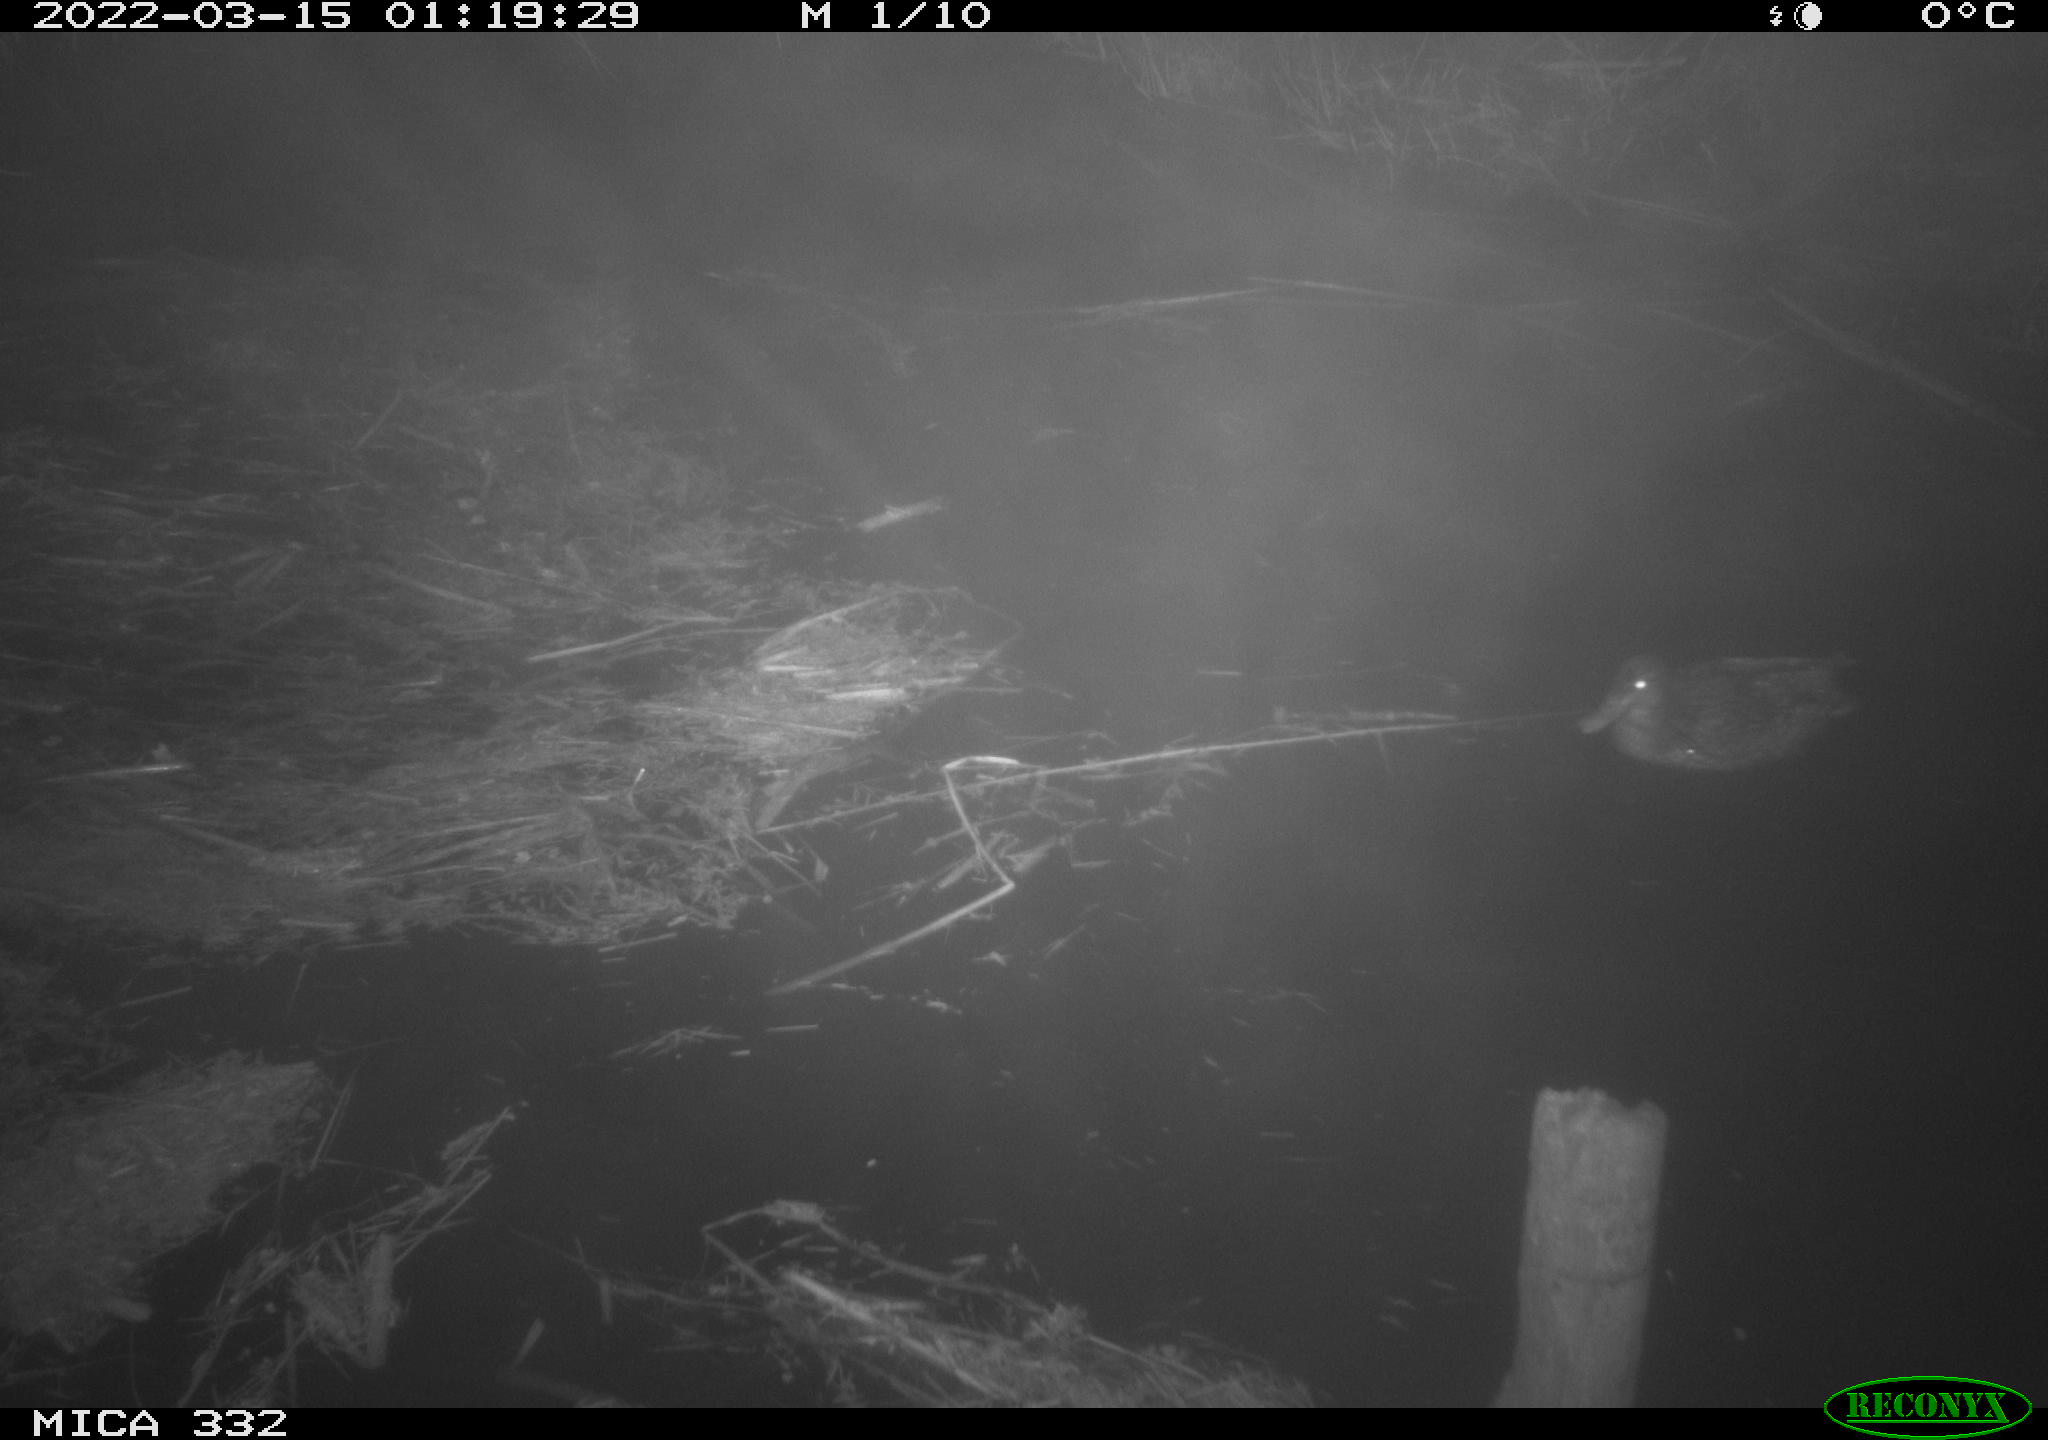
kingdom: Animalia
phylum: Chordata
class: Aves
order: Anseriformes
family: Anatidae
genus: Anas
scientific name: Anas platyrhynchos
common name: Mallard
